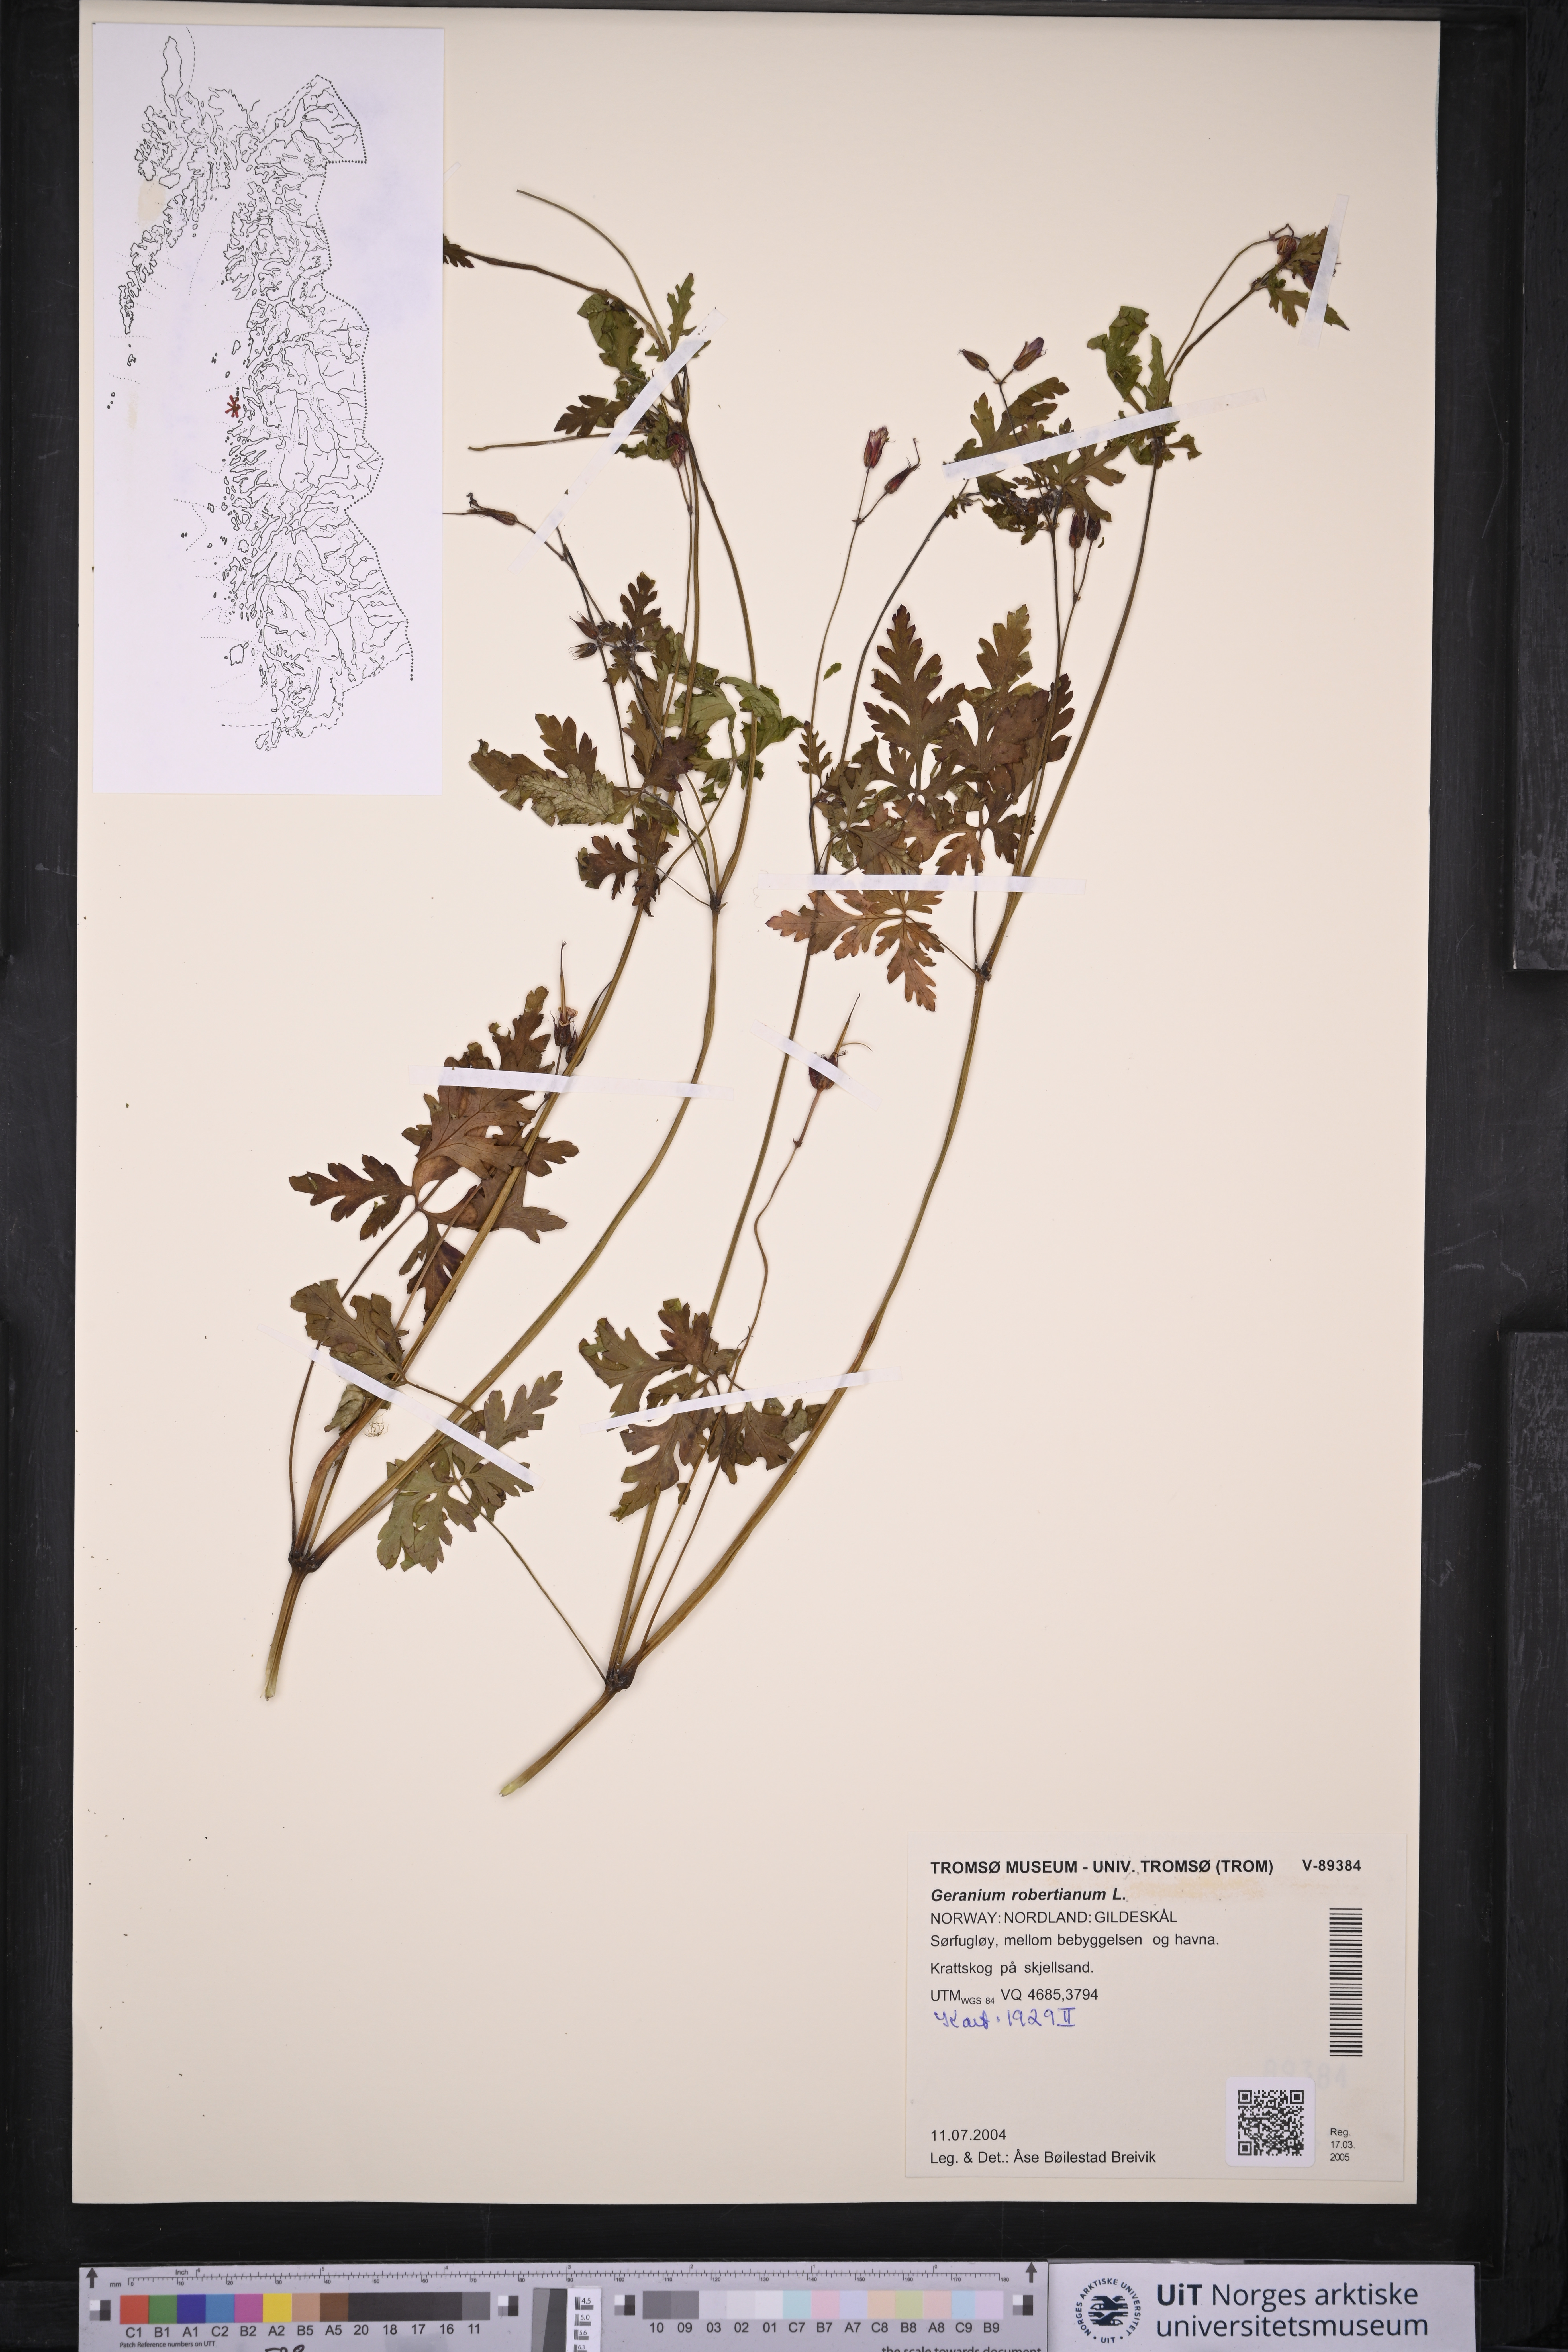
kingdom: Plantae
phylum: Tracheophyta
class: Magnoliopsida
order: Geraniales
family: Geraniaceae
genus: Geranium
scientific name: Geranium robertianum
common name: Herb-robert
